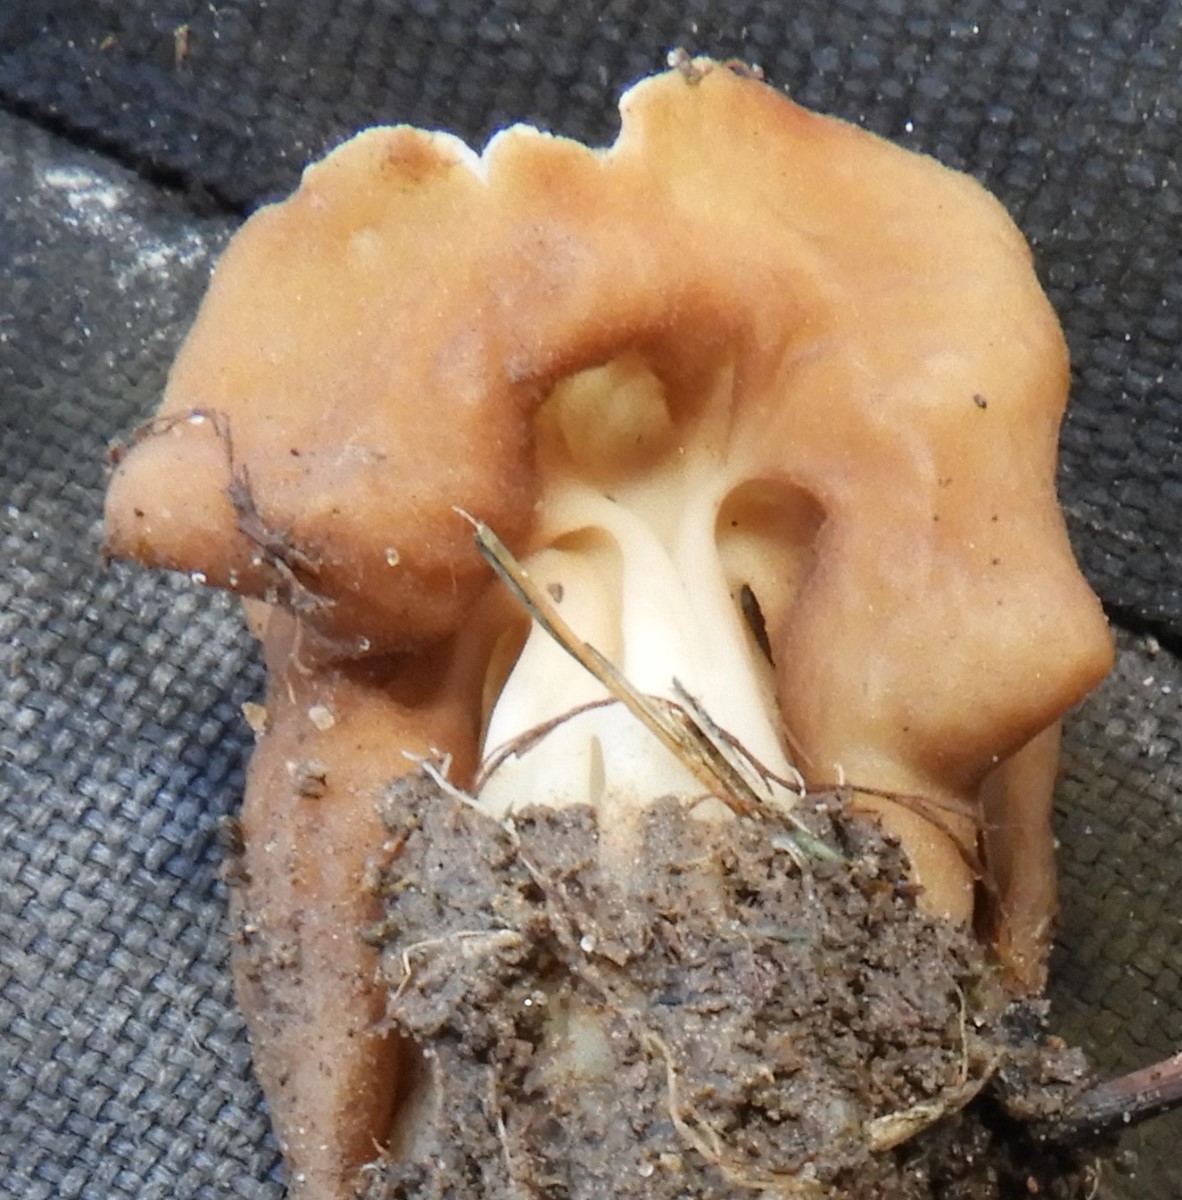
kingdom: Fungi
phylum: Ascomycota
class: Pezizomycetes
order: Pezizales
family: Helvellaceae
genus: Helvella
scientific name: Helvella crispa
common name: kruset foldhat
